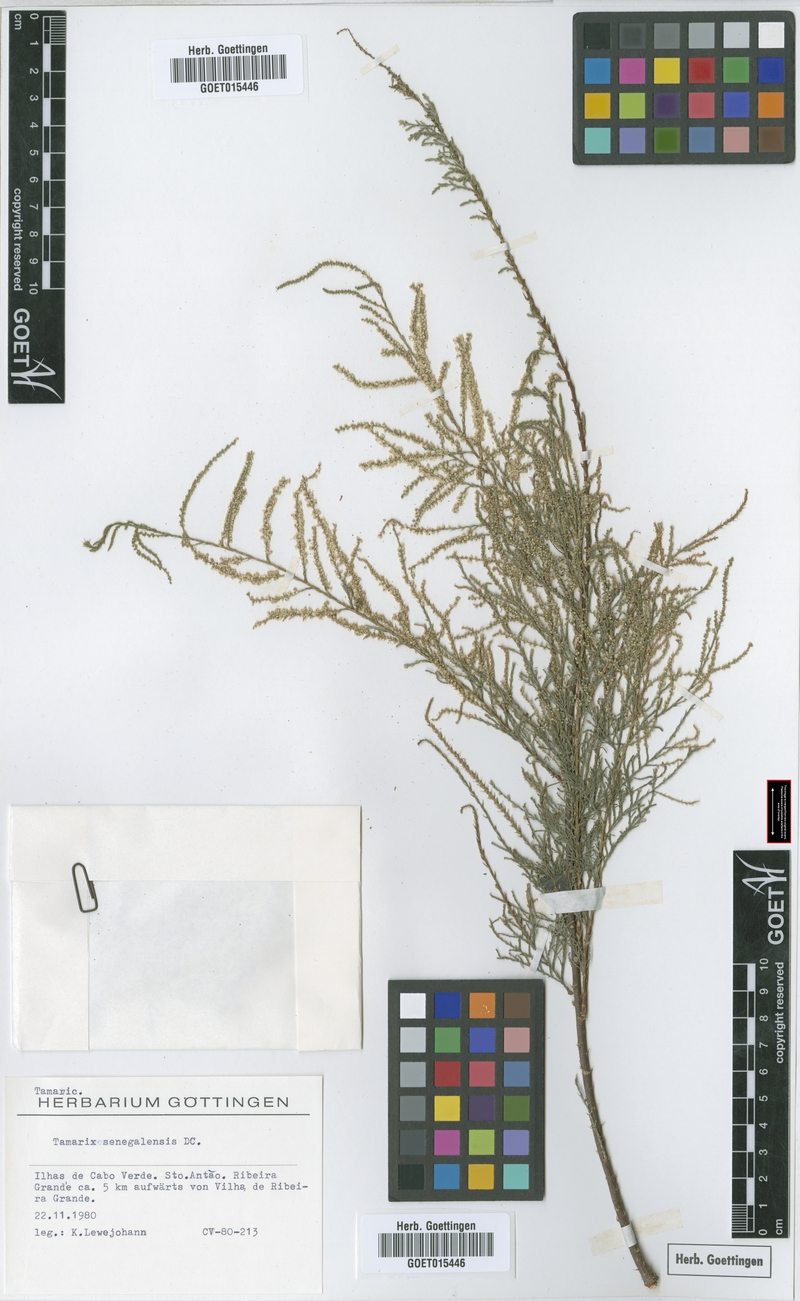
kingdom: Plantae
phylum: Tracheophyta
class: Magnoliopsida
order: Caryophyllales
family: Tamaricaceae
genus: Tamarix
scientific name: Tamarix senegalensis
